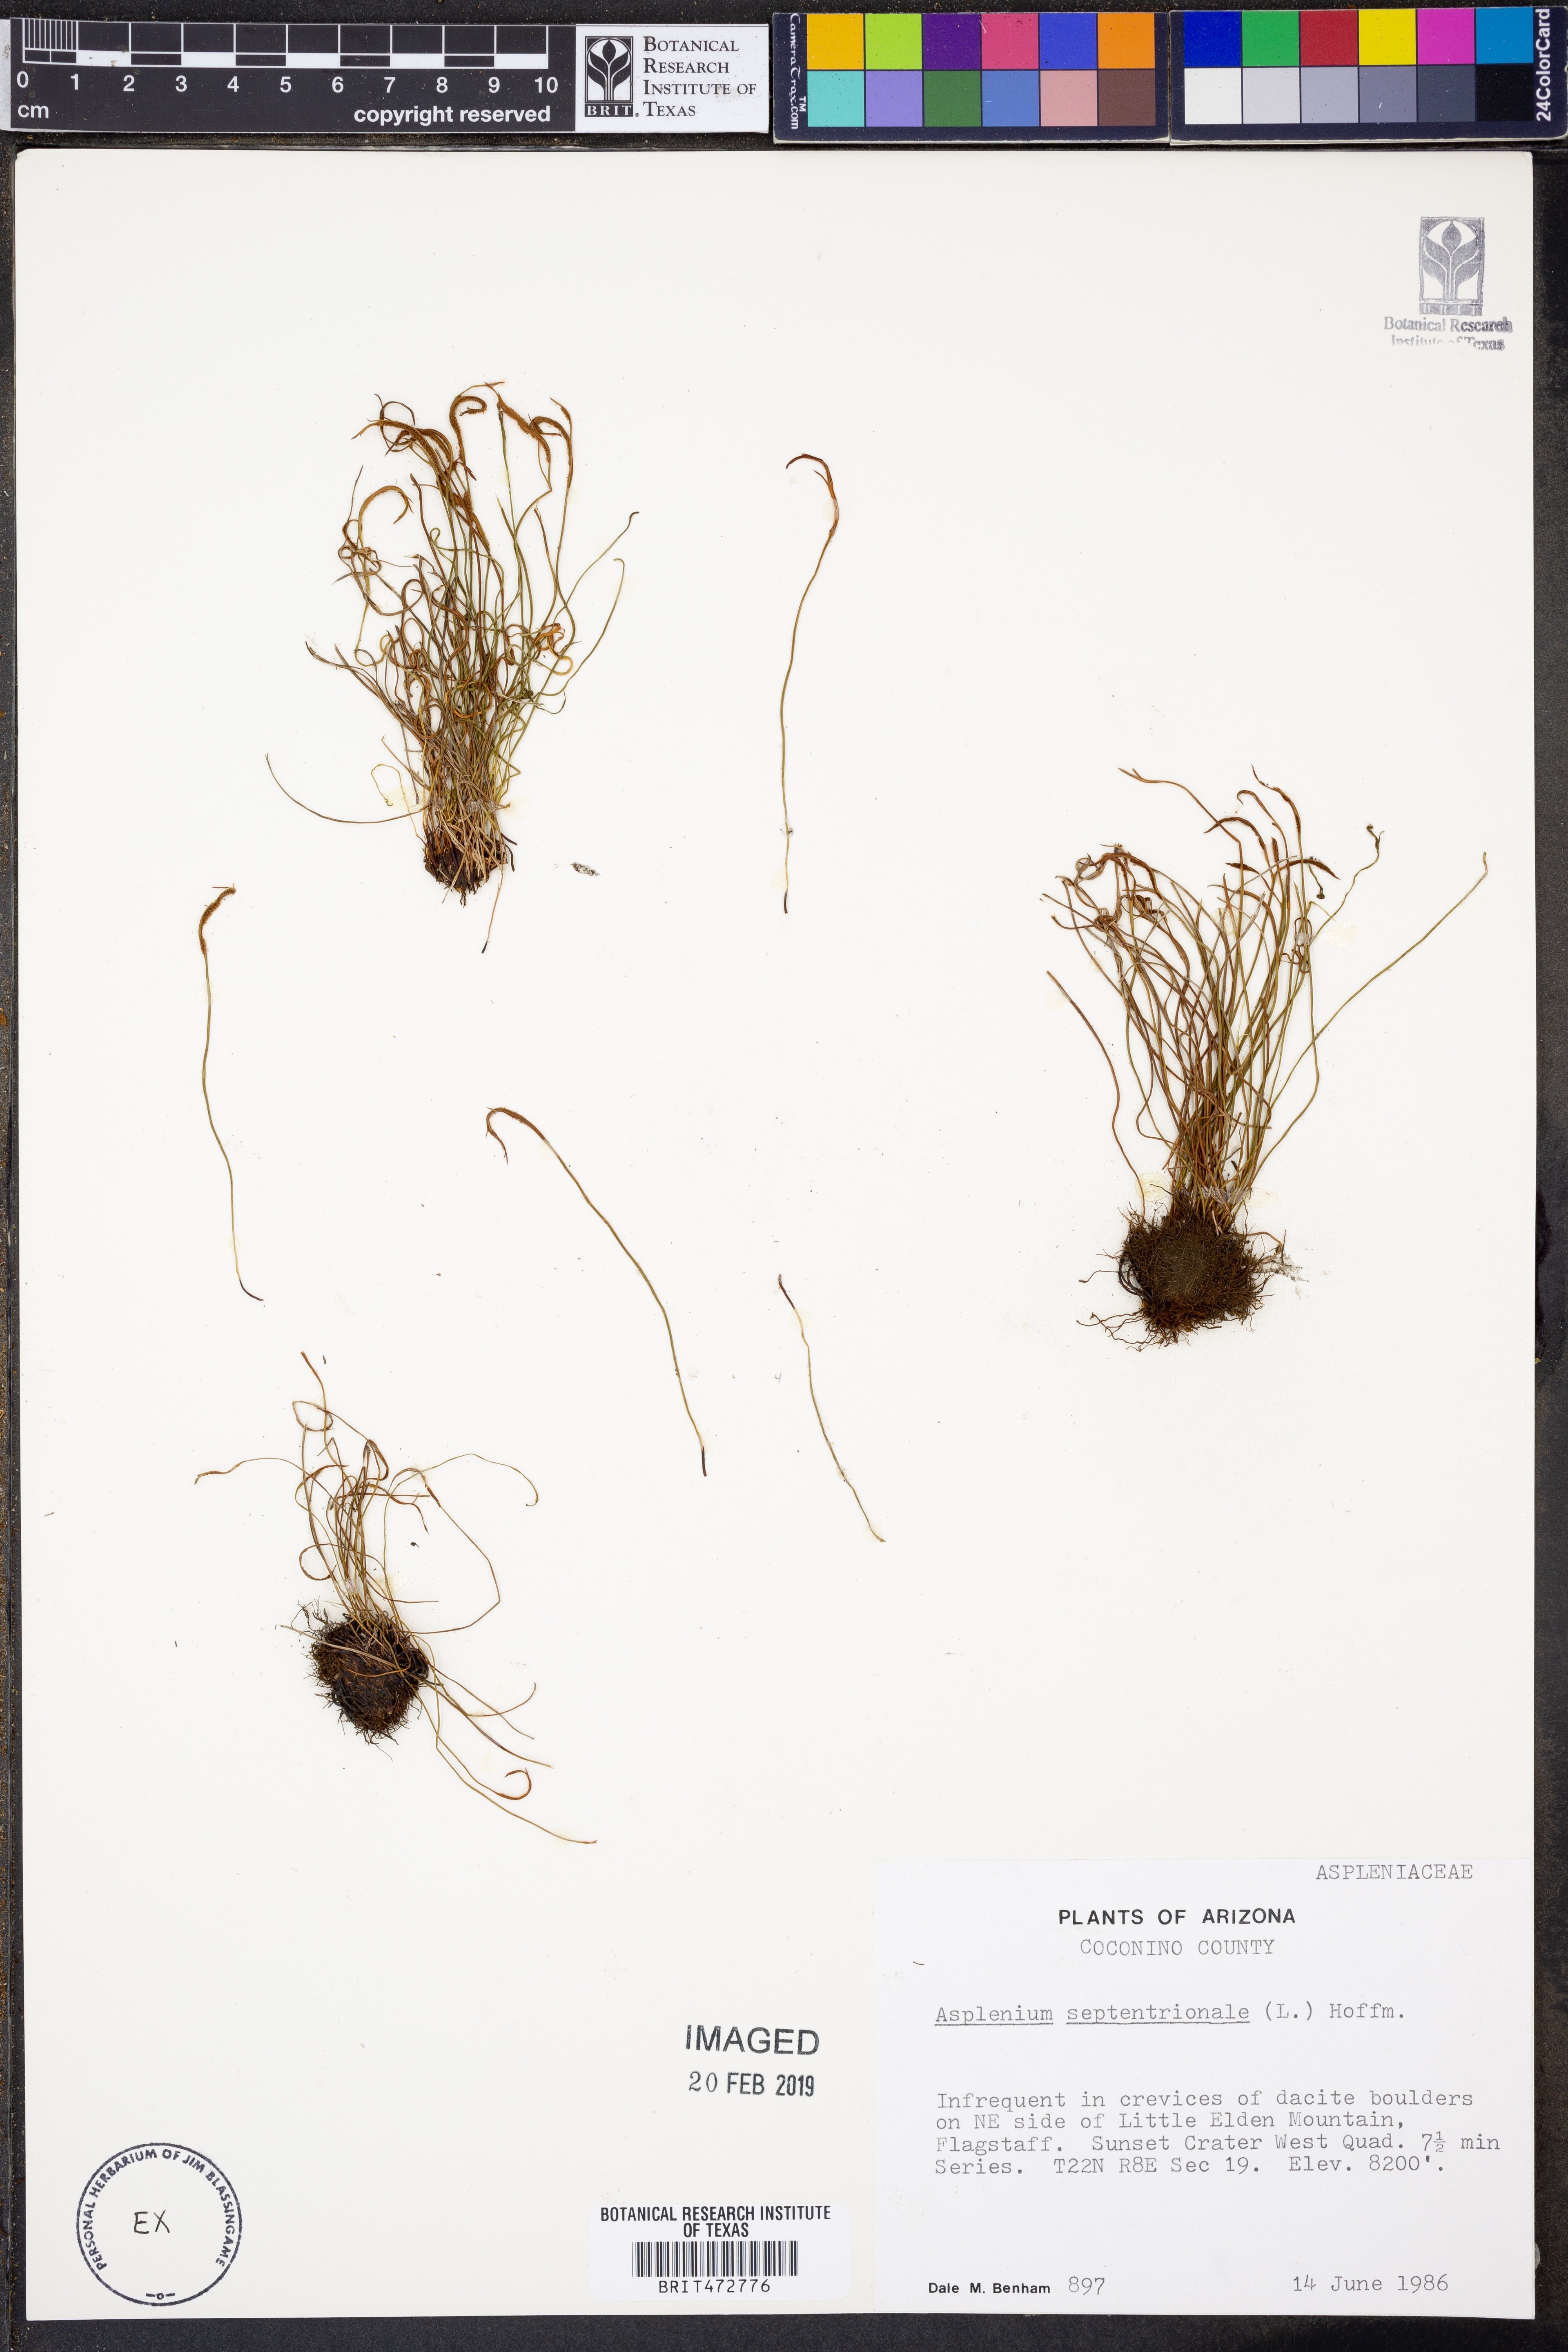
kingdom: Plantae
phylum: Tracheophyta
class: Polypodiopsida
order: Polypodiales
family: Aspleniaceae
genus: Asplenium
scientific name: Asplenium septentrionale
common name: Forked spleenwort
